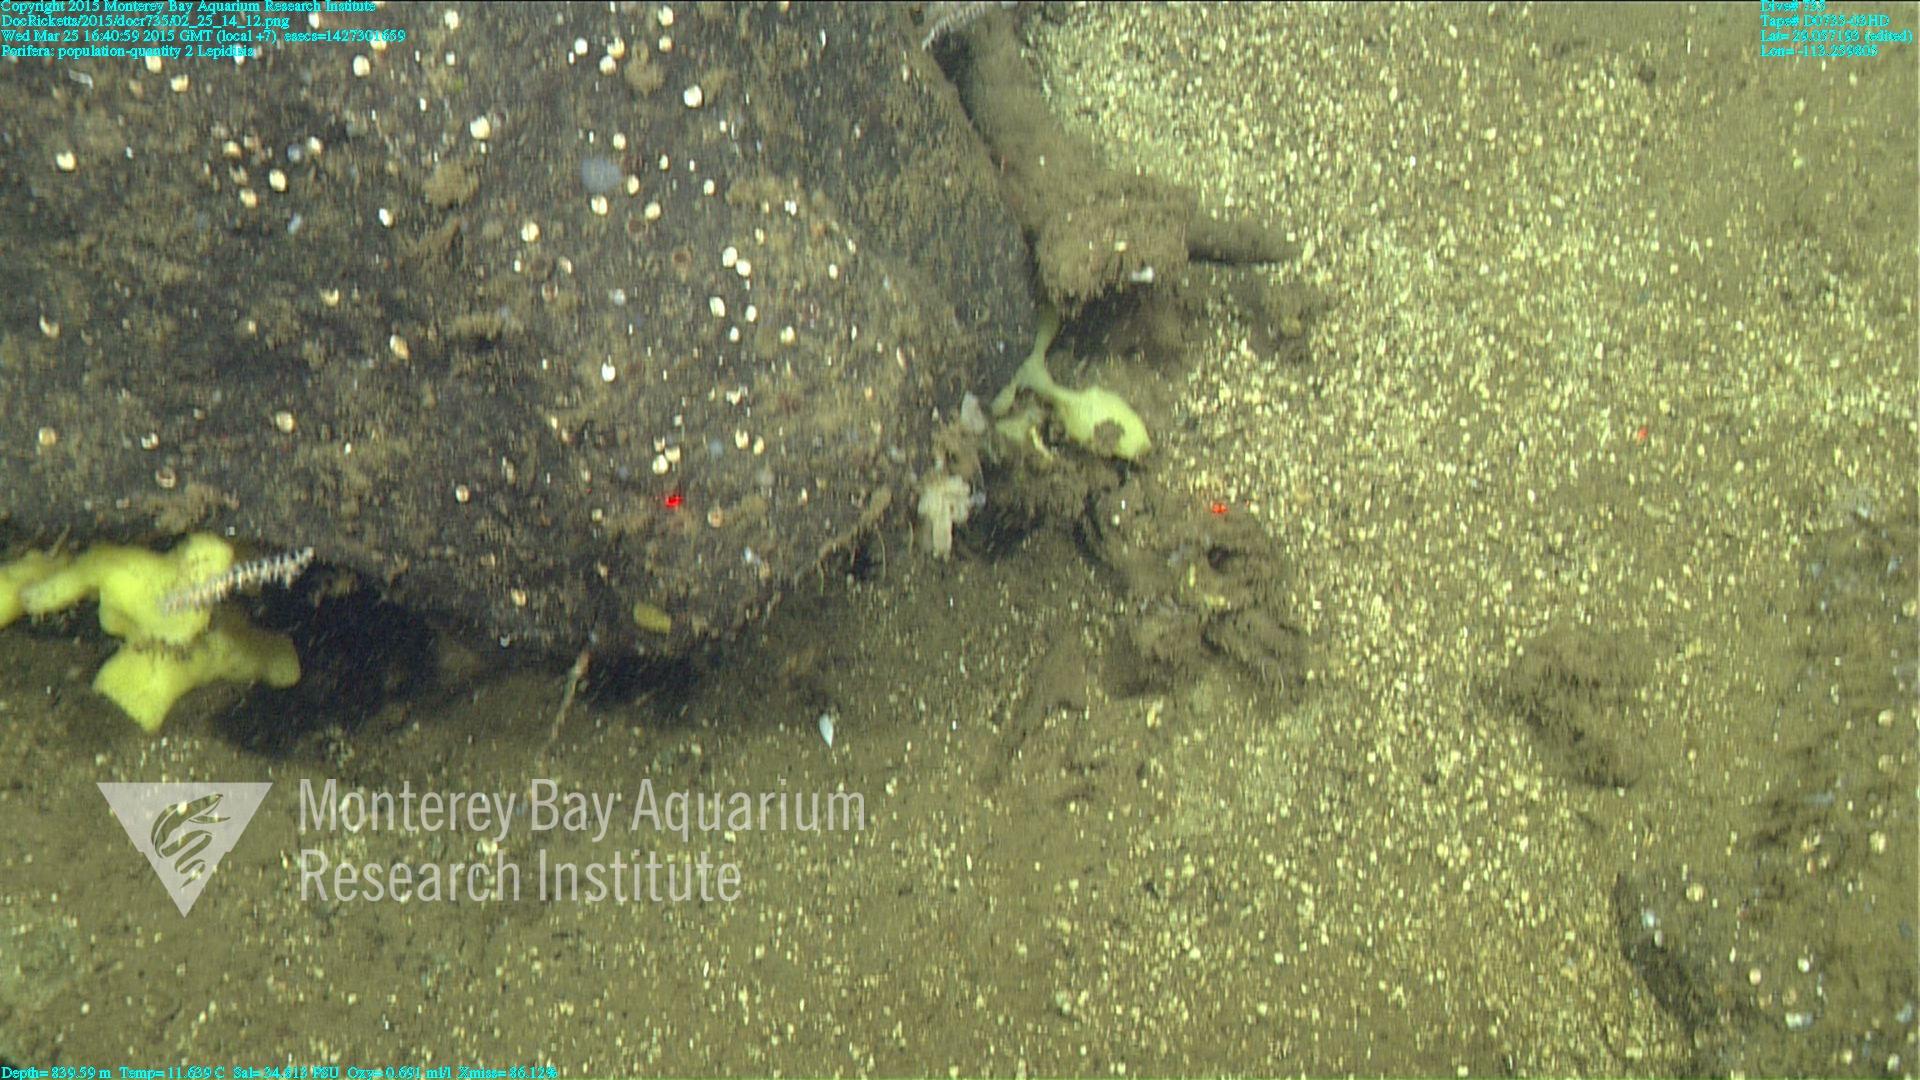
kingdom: Animalia
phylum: Cnidaria
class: Anthozoa
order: Scleralcyonacea
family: Keratoisididae
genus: Lepidisis
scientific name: Lepidisis
